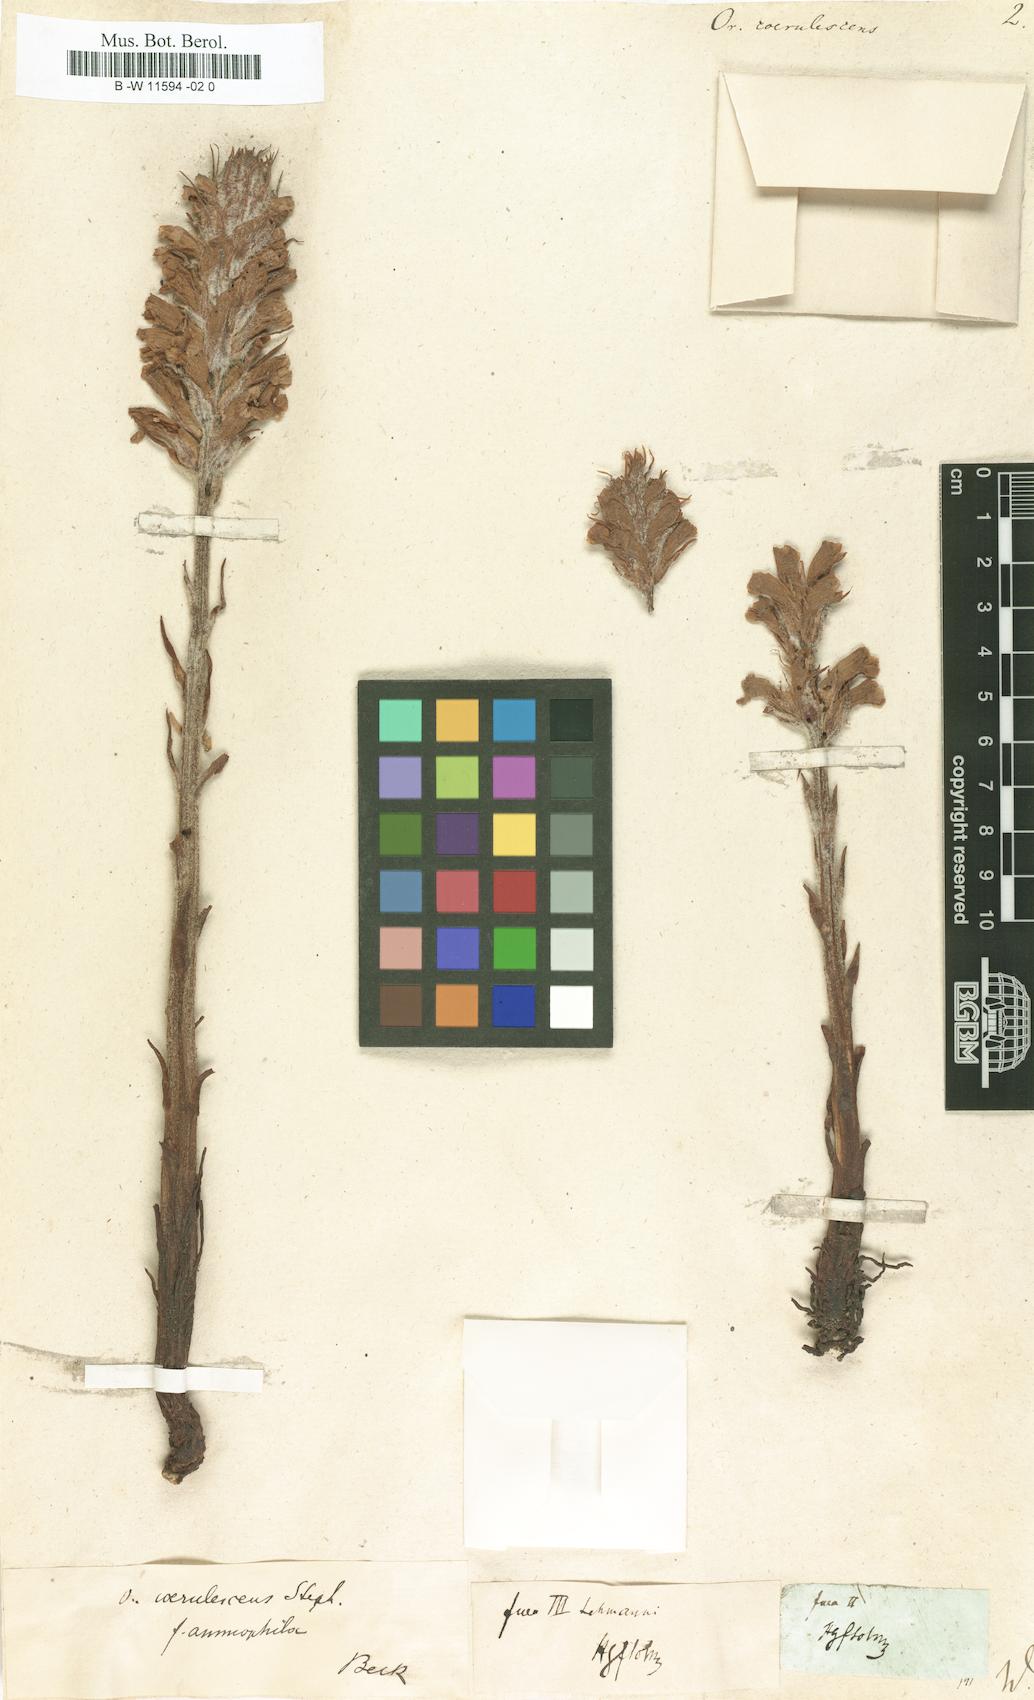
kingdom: Plantae
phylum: Tracheophyta
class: Magnoliopsida
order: Lamiales
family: Orobanchaceae
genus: Orobanche
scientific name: Orobanche coerulescens
